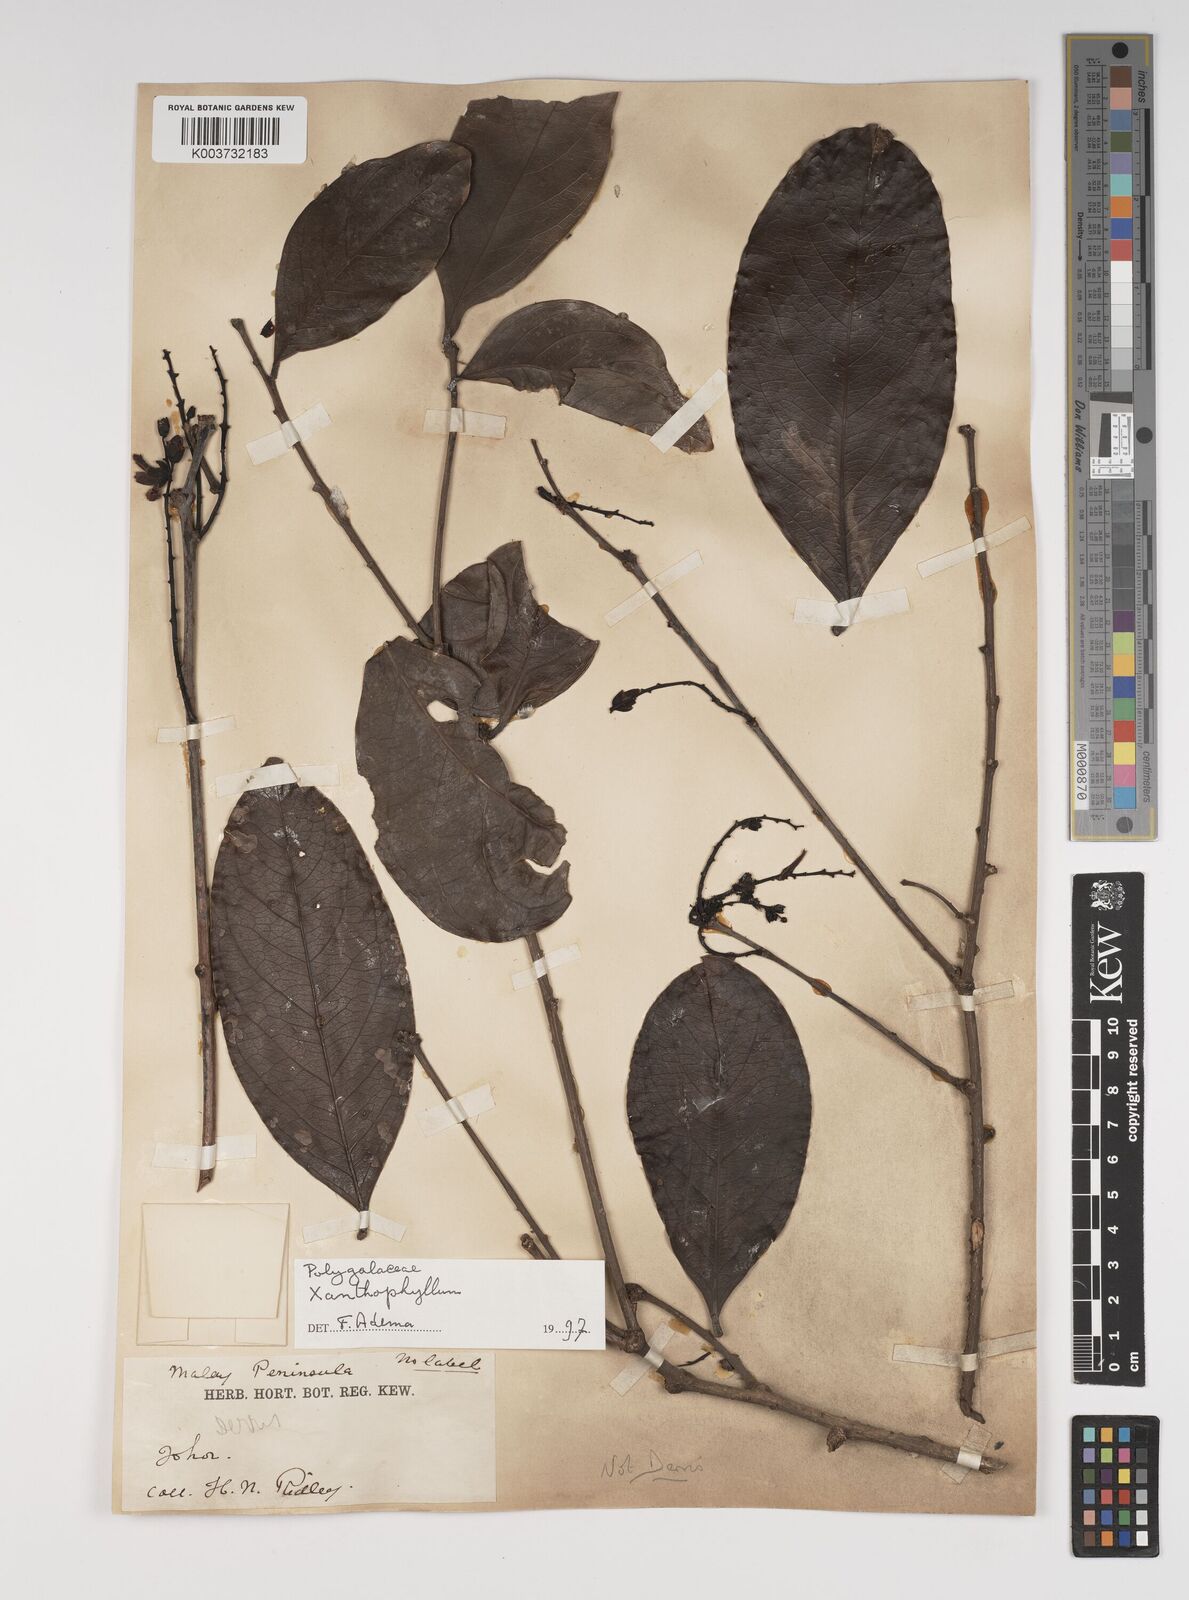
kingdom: Plantae
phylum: Tracheophyta
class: Magnoliopsida
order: Fabales
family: Polygalaceae
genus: Xanthophyllum
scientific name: Xanthophyllum
